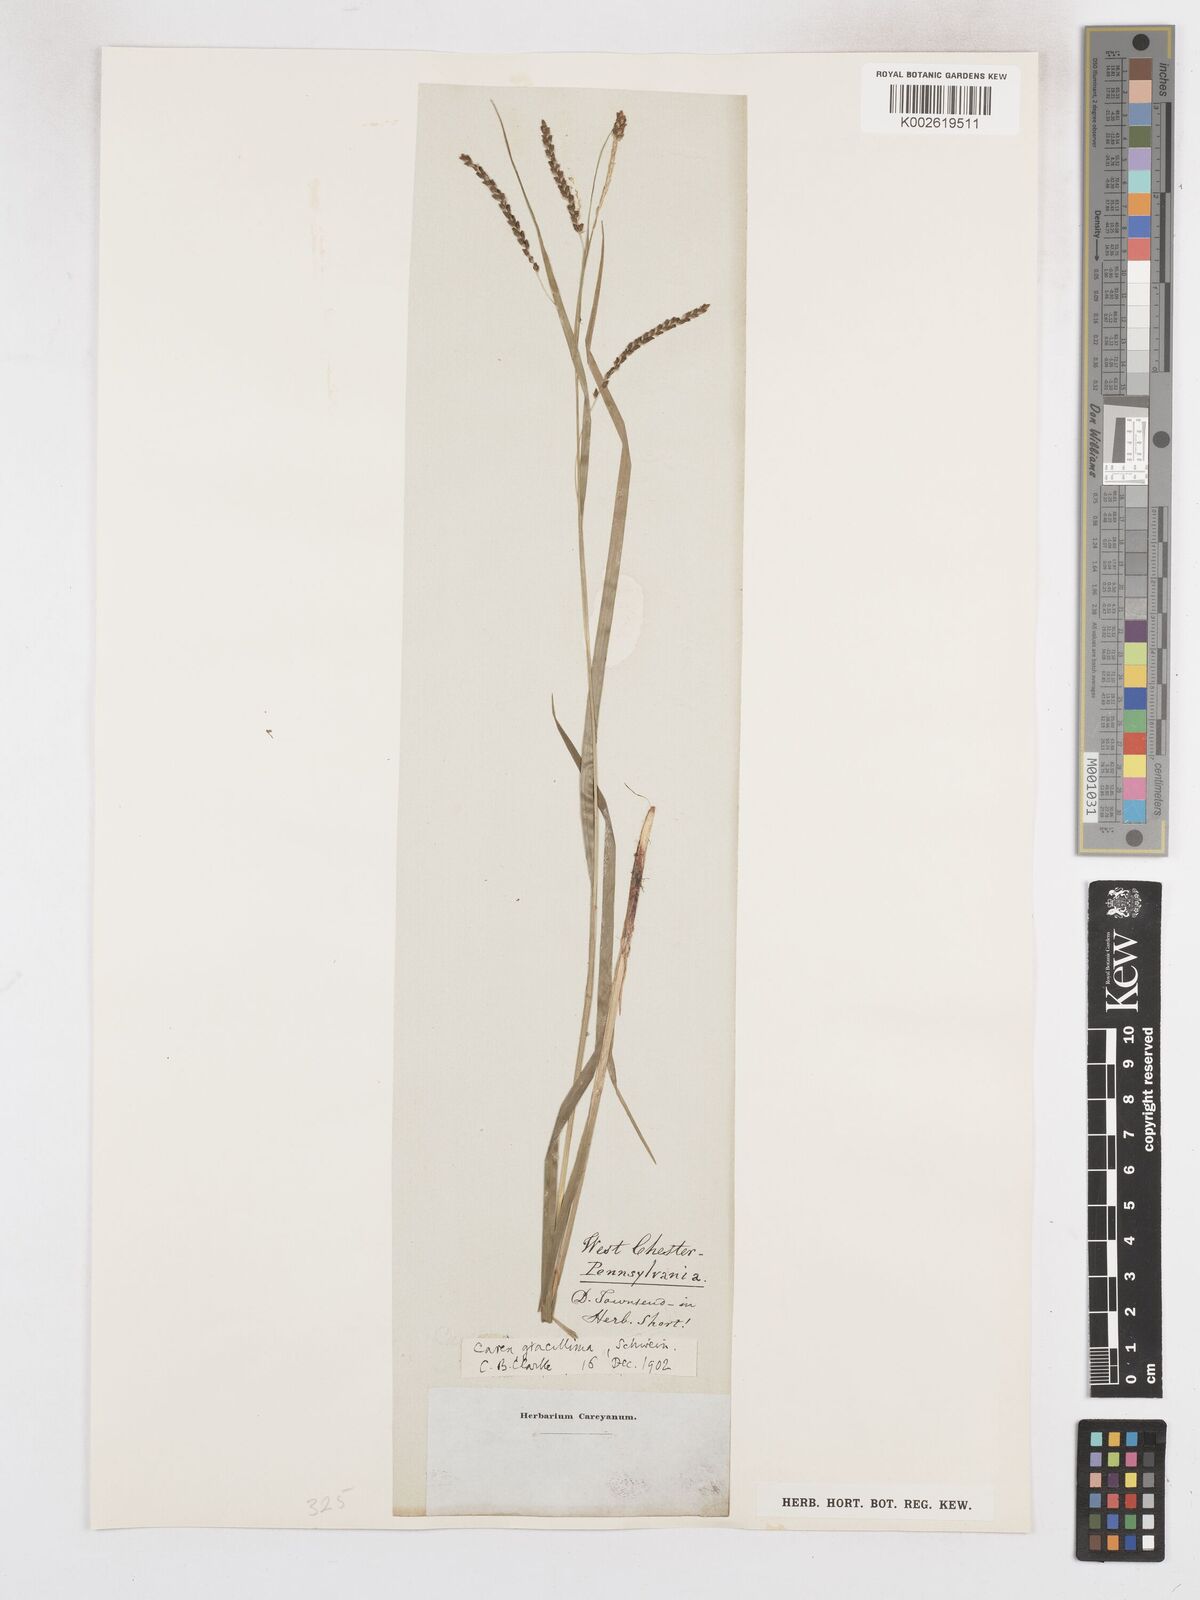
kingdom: Plantae
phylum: Tracheophyta
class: Liliopsida
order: Poales
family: Cyperaceae
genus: Carex
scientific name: Carex gracillima
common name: Graceful sedge
